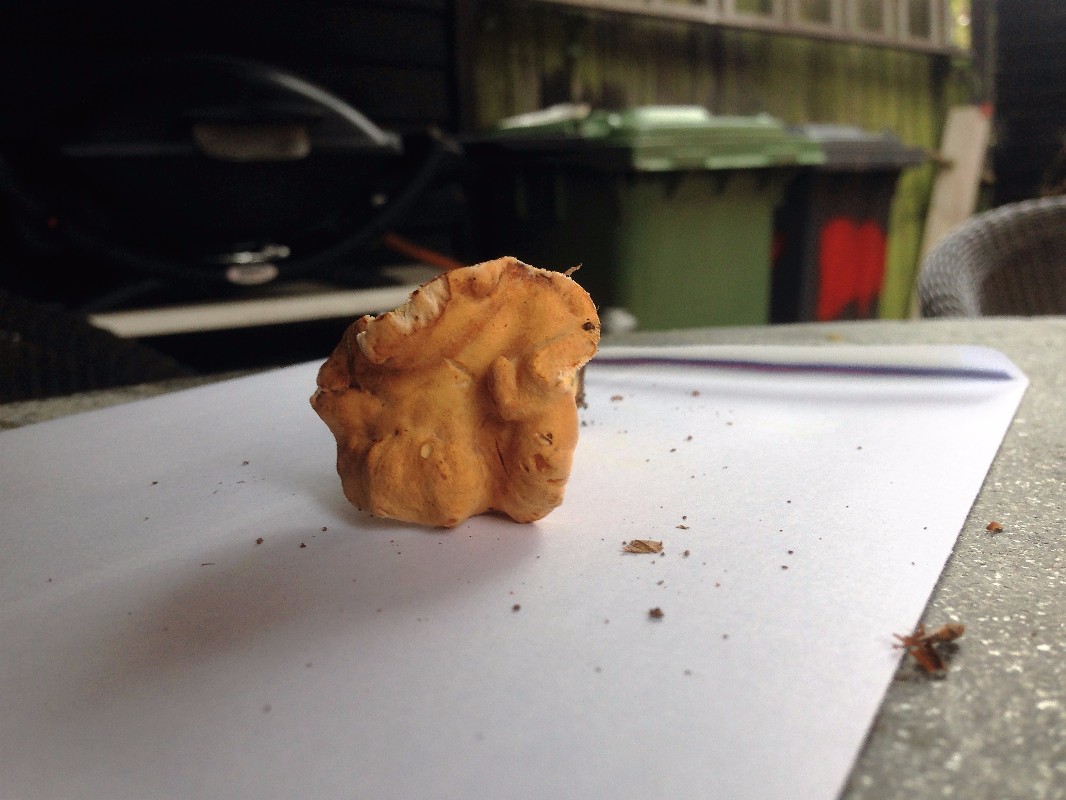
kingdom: Fungi
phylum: Basidiomycota
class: Agaricomycetes
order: Cantharellales
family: Hydnaceae
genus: Hydnum
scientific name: Hydnum rufescens
